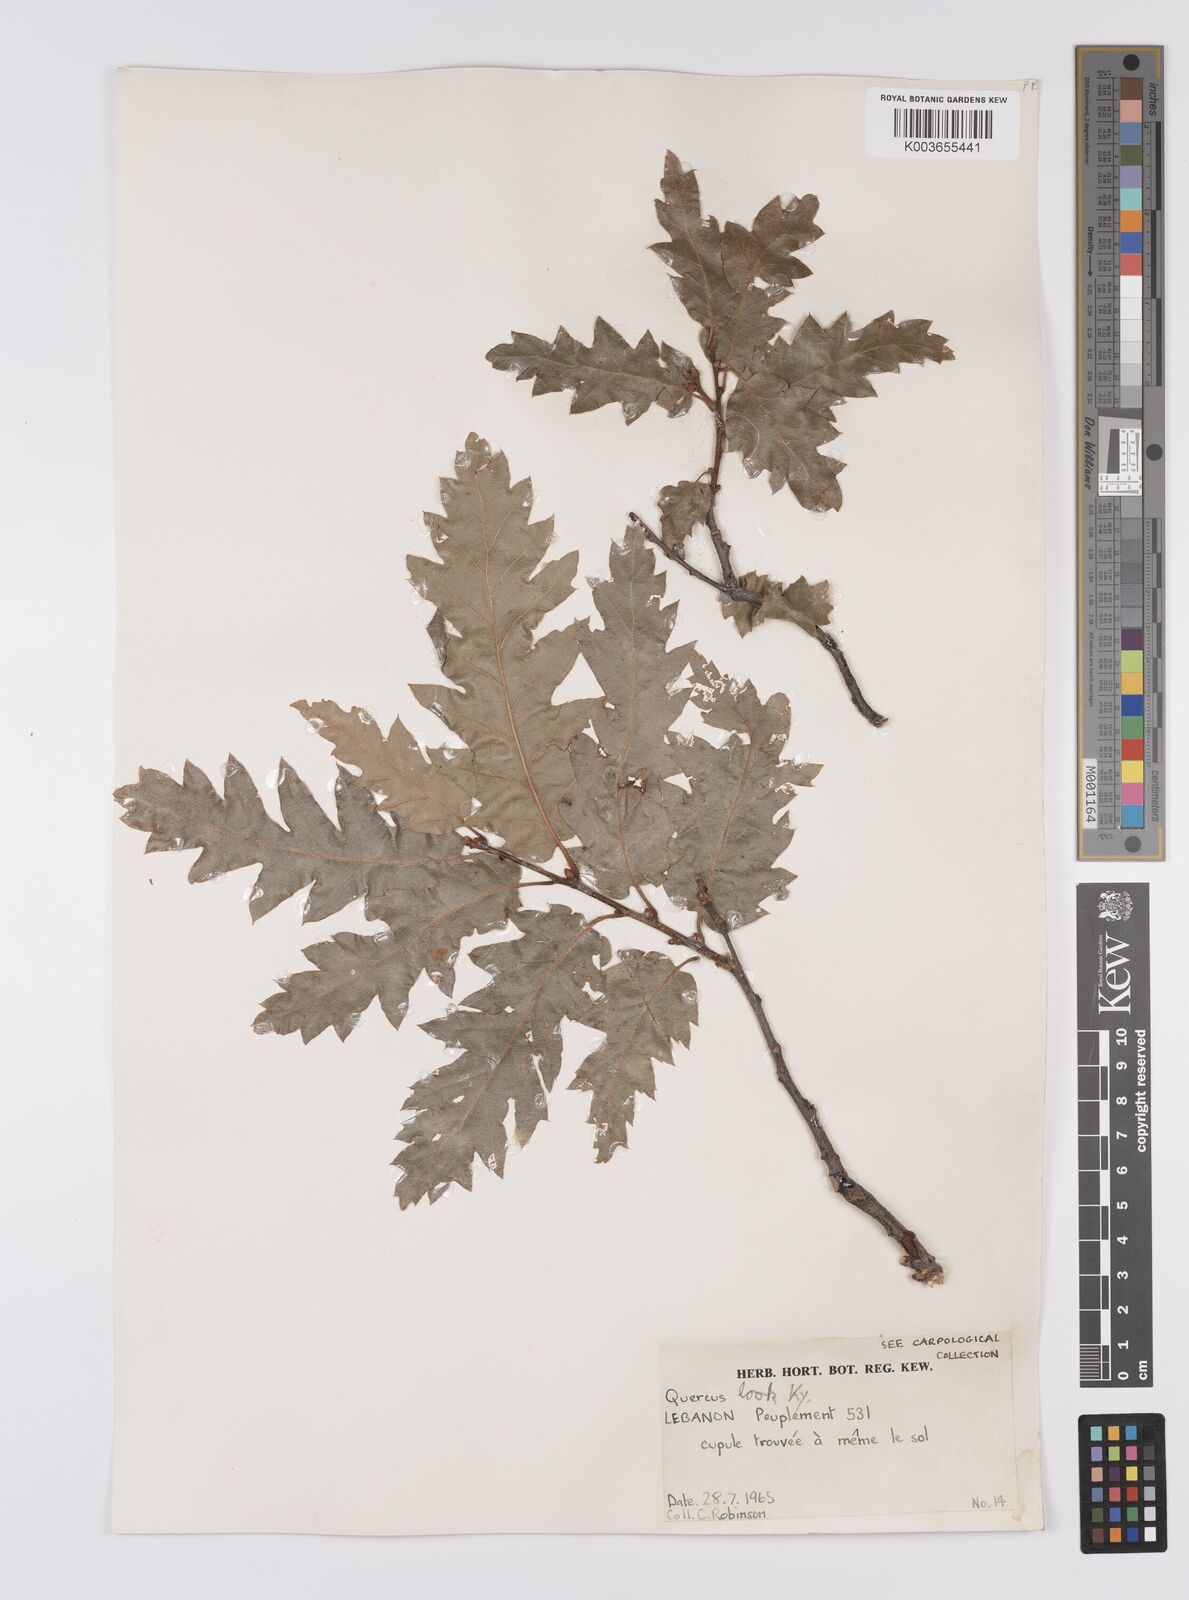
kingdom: Plantae
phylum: Tracheophyta
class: Magnoliopsida
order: Fagales
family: Fagaceae
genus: Quercus
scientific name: Quercus look
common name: Look oak
